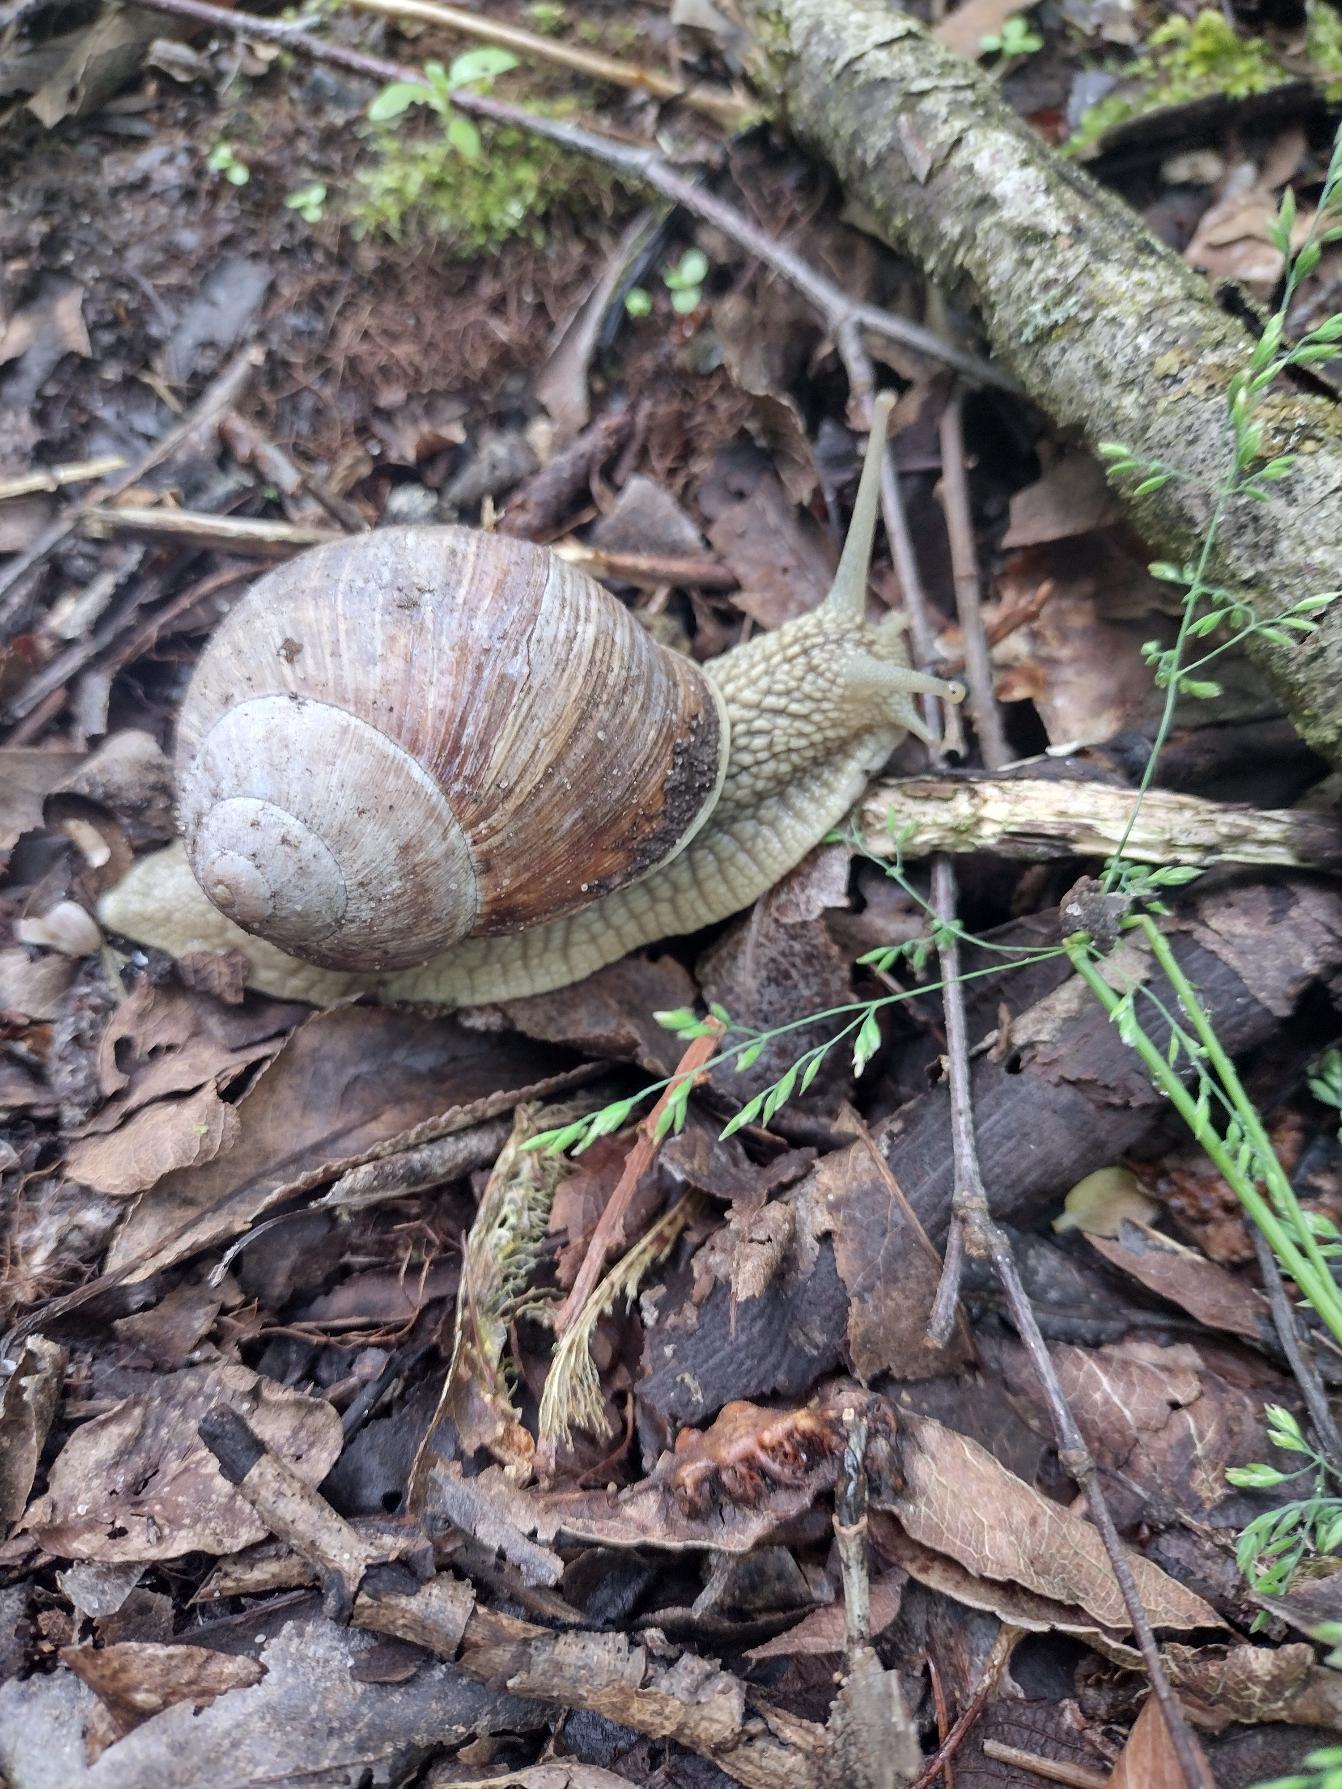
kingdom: Animalia
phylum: Mollusca
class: Gastropoda
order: Stylommatophora
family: Helicidae
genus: Helix
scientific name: Helix pomatia
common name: Vinbjergsnegl
